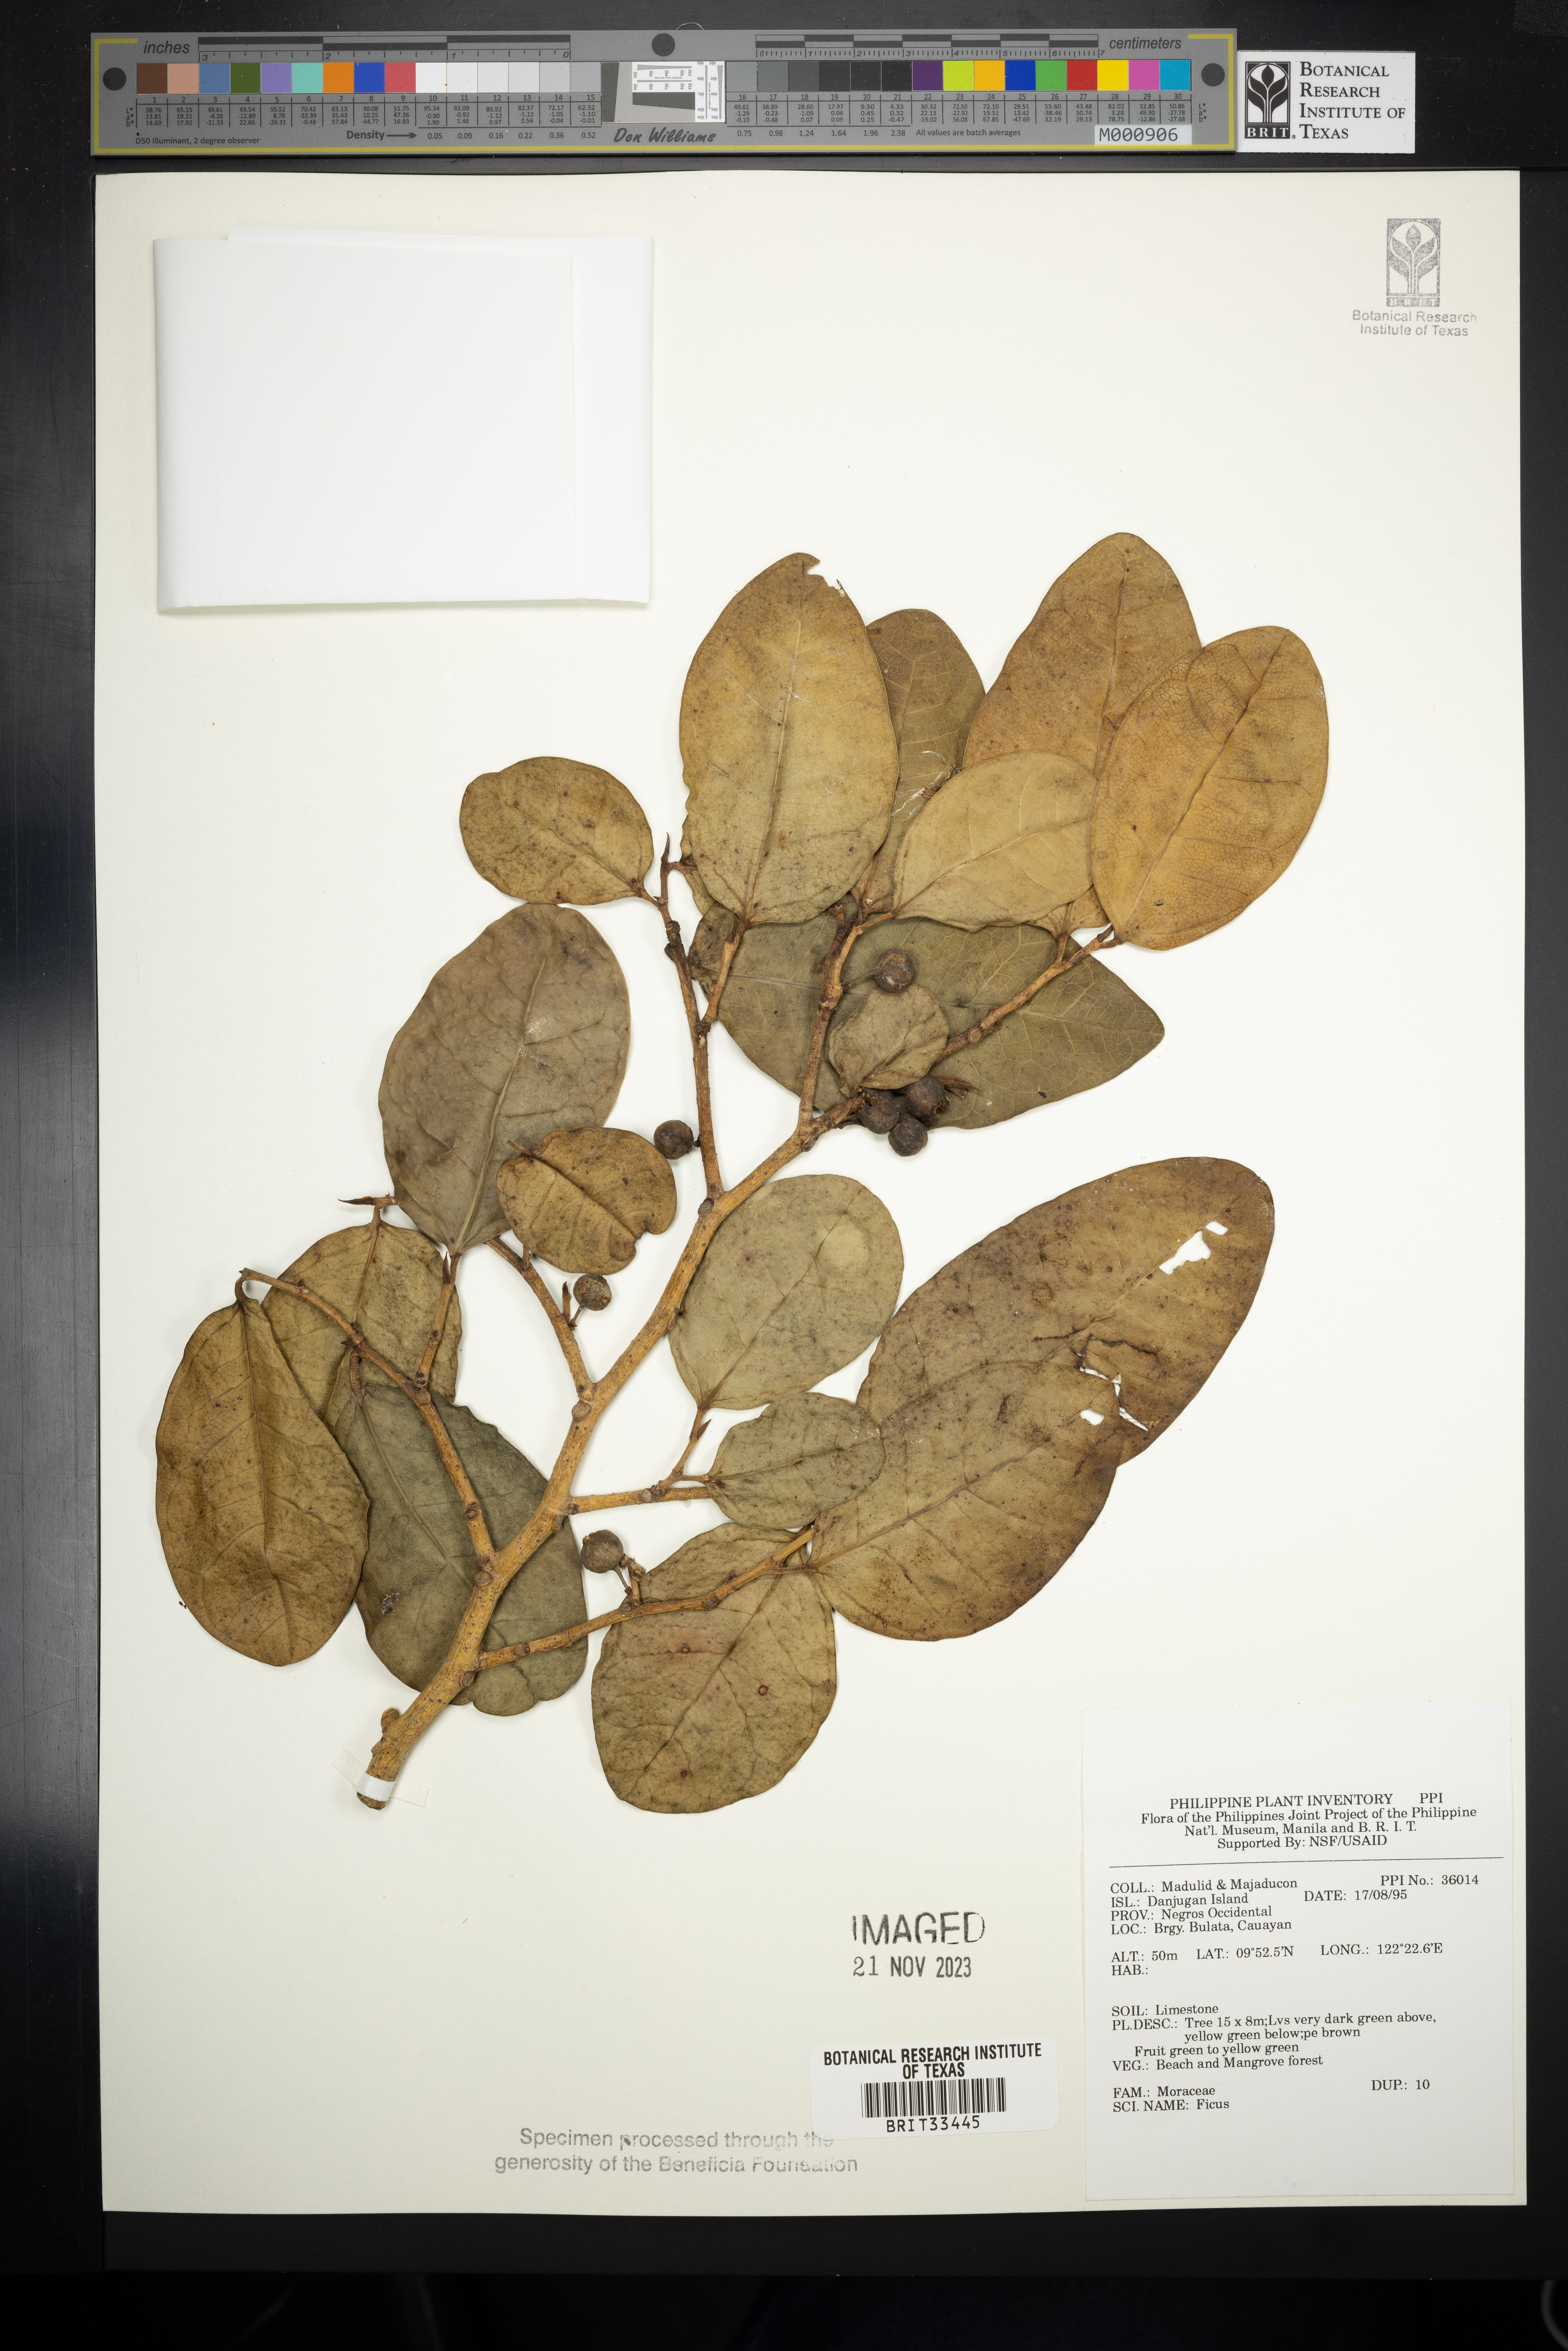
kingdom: Plantae
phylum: Tracheophyta
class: Magnoliopsida
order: Rosales
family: Moraceae
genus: Ficus
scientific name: Ficus
